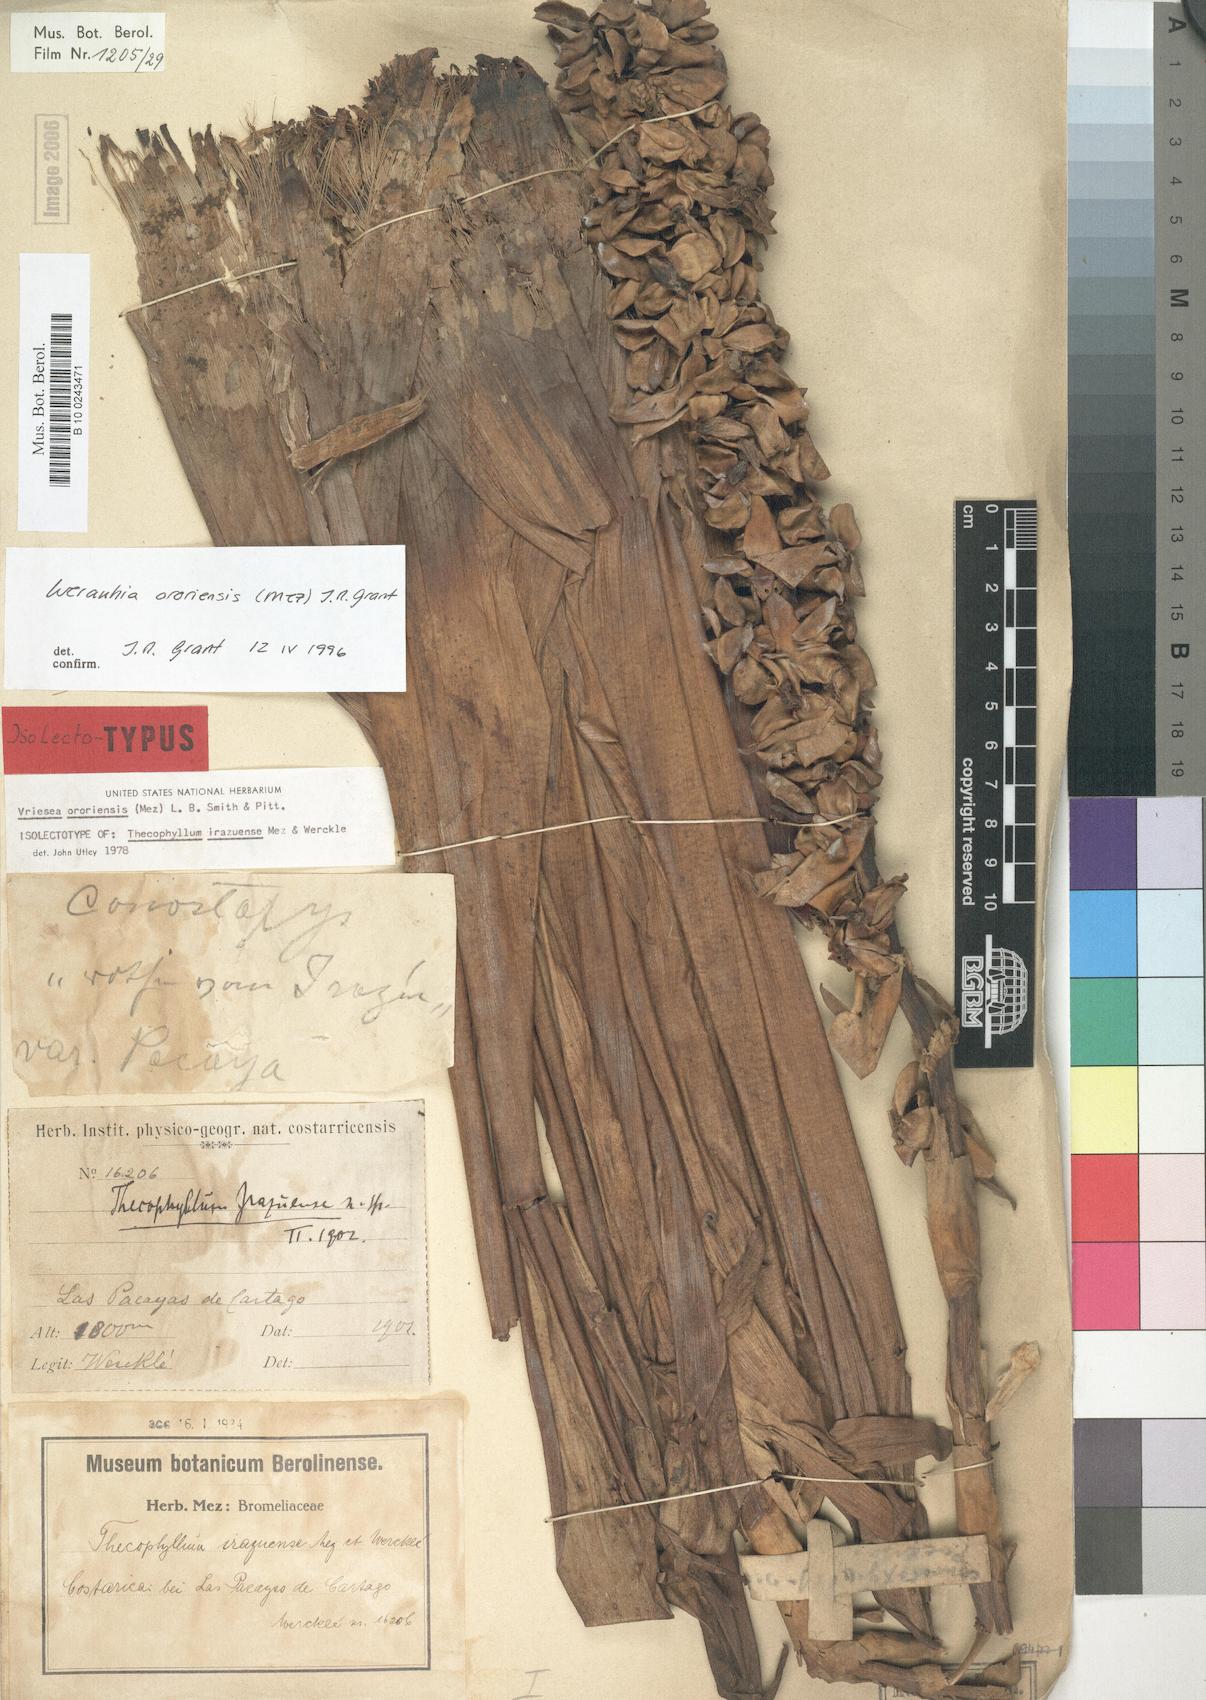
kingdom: Plantae
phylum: Tracheophyta
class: Liliopsida
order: Poales
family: Bromeliaceae
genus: Werauhia
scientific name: Werauhia ororiensis
